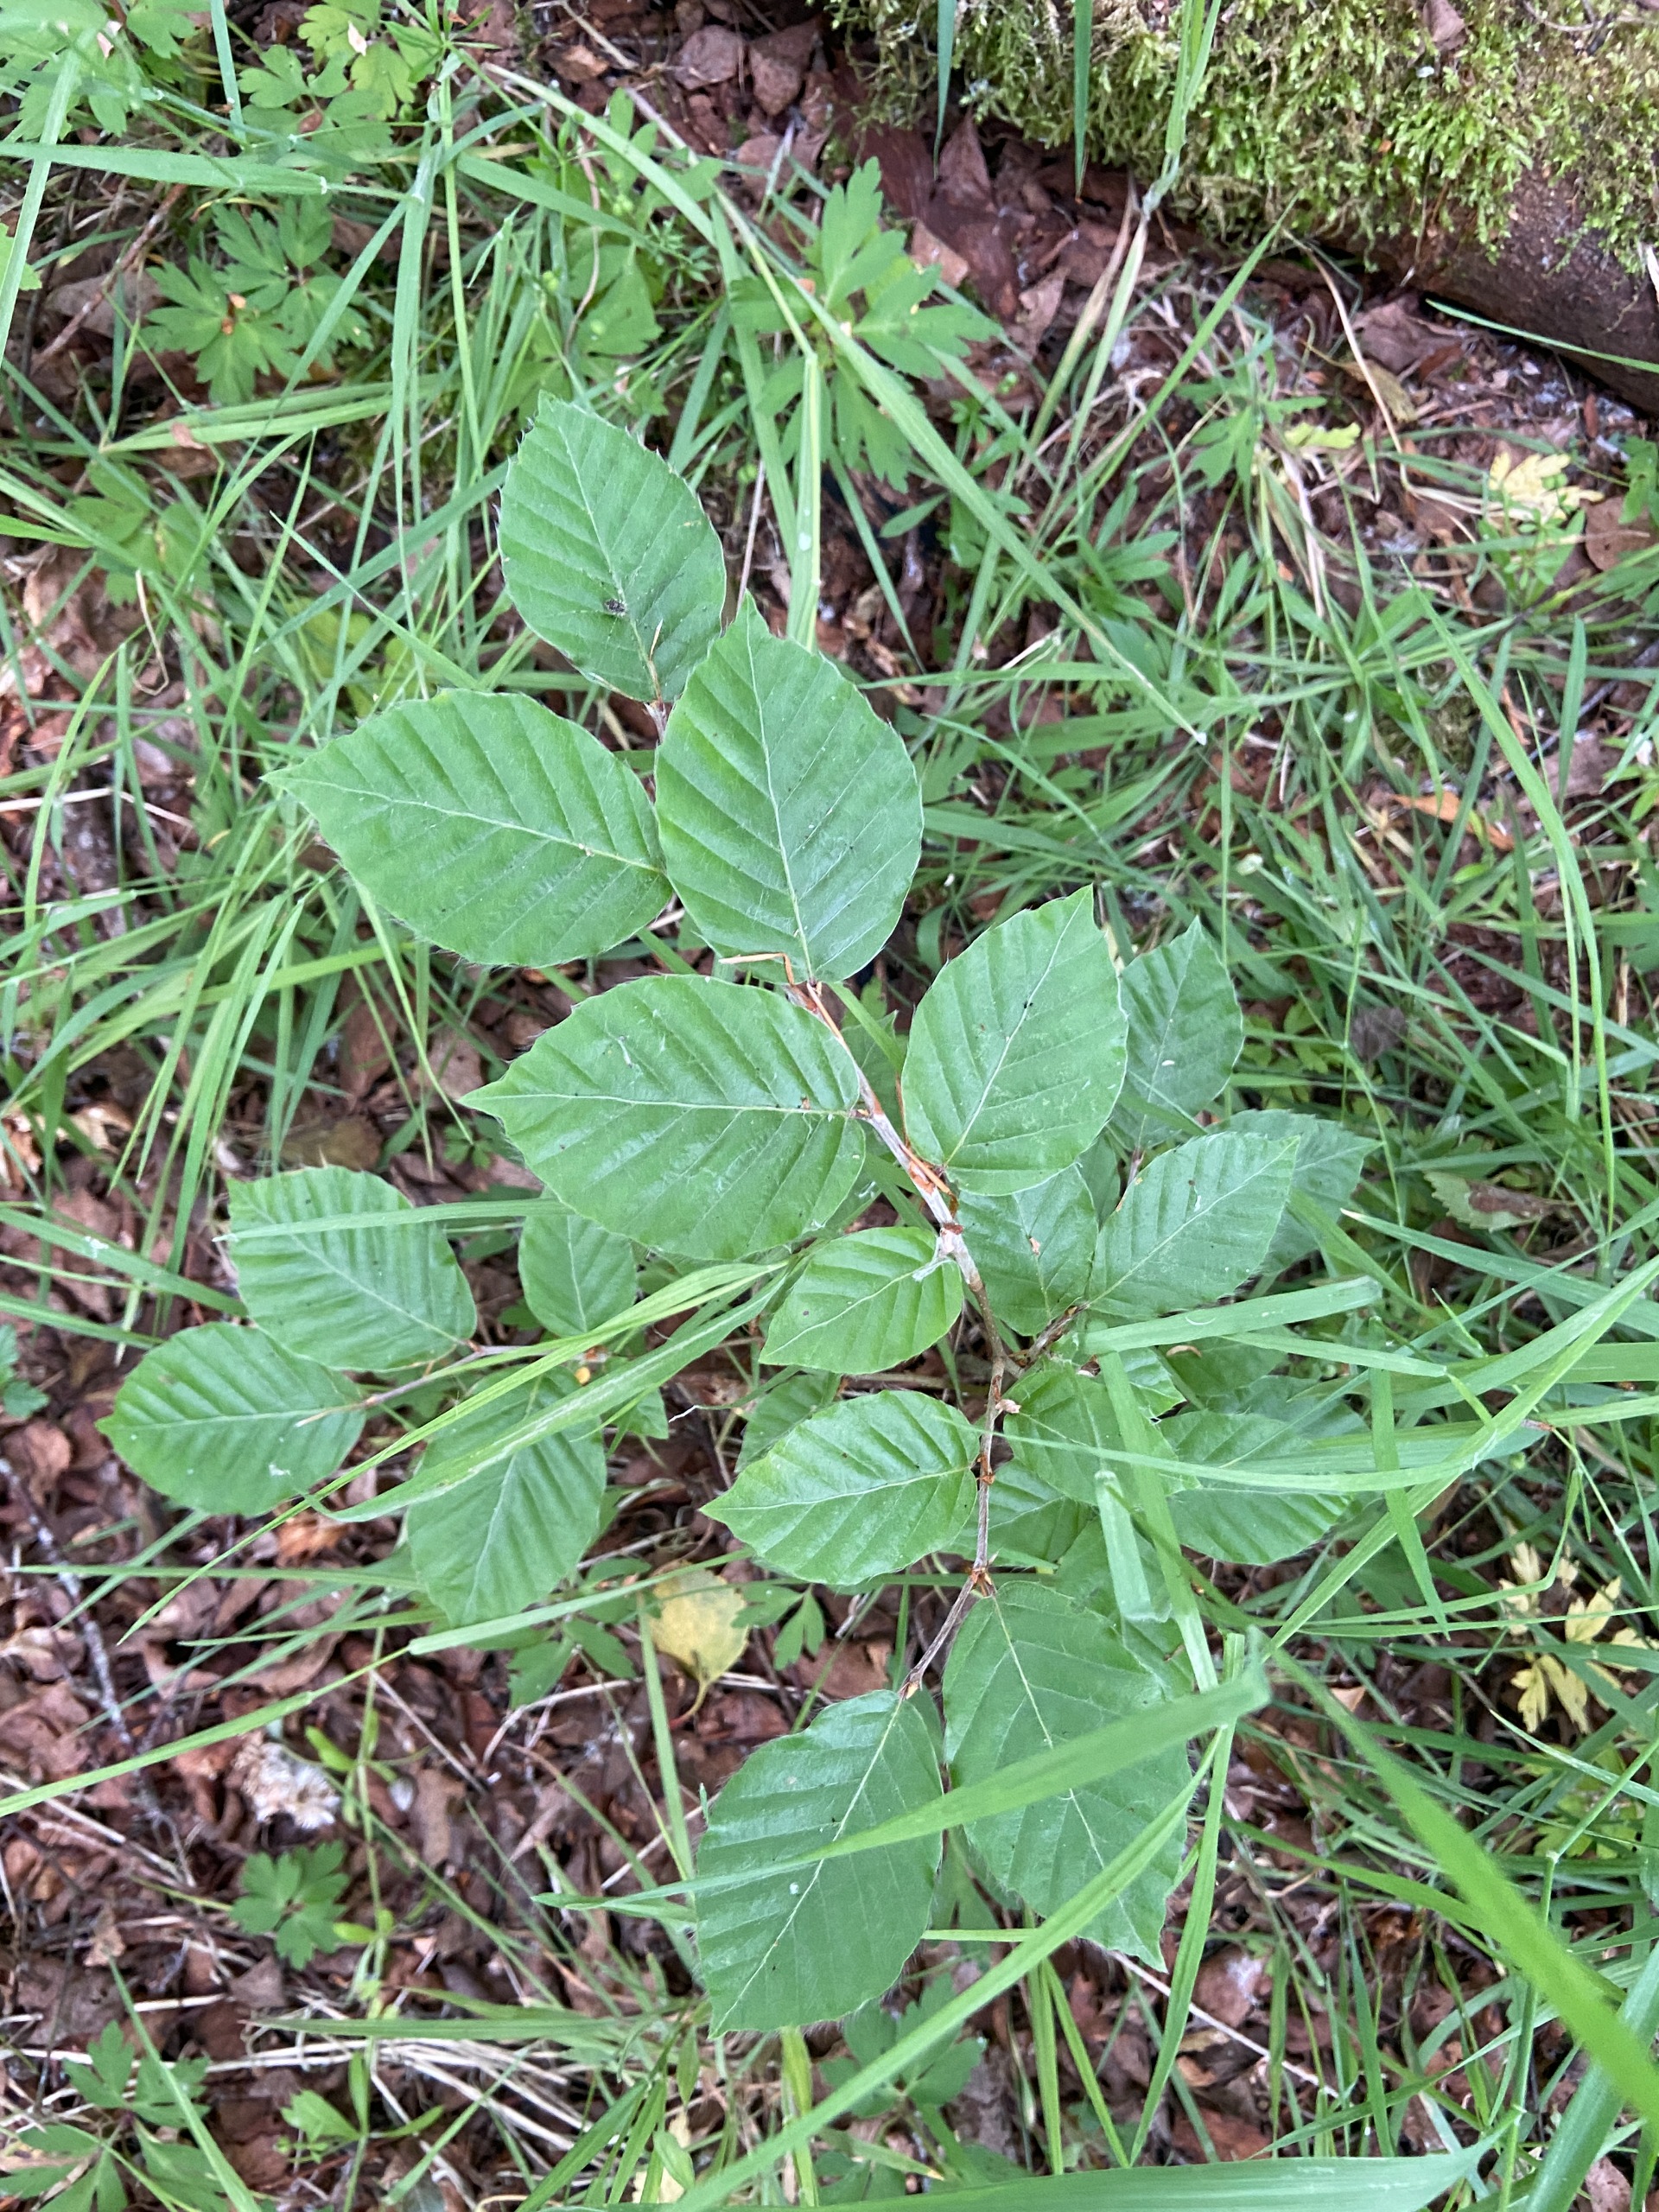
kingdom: Plantae
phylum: Tracheophyta
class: Magnoliopsida
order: Fagales
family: Fagaceae
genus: Fagus
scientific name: Fagus sylvatica
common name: Bøg
